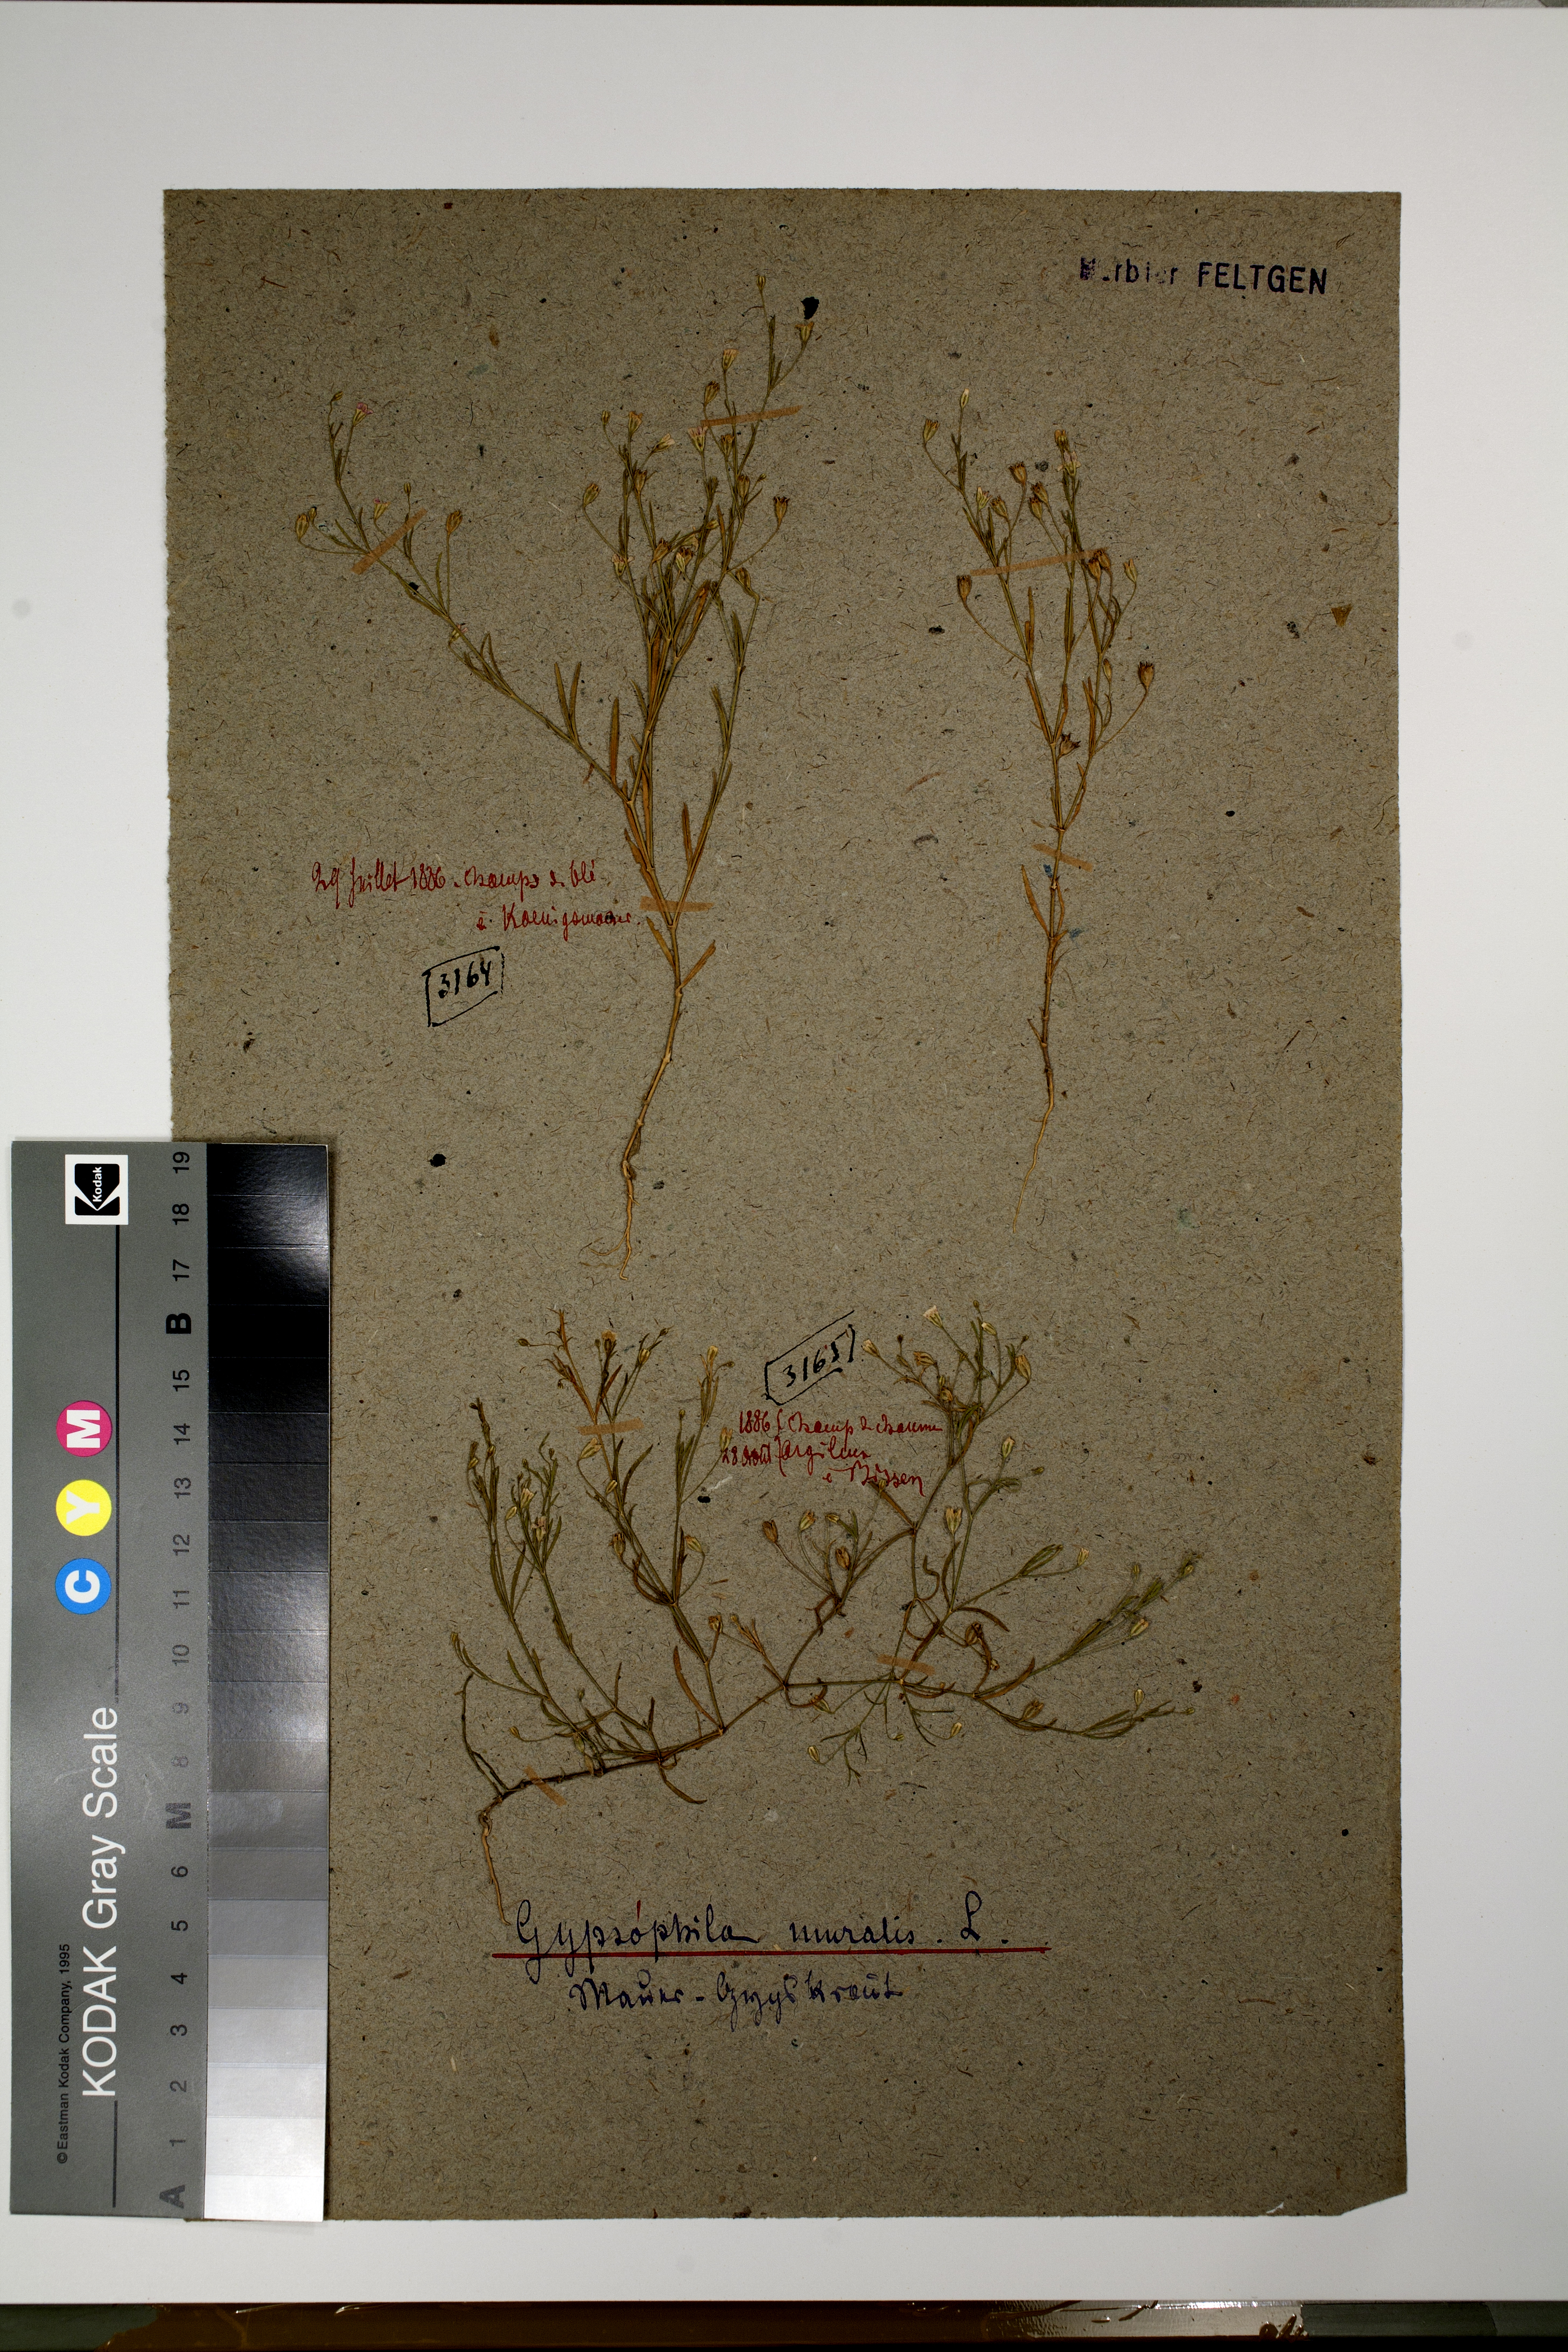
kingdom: Plantae
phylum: Tracheophyta
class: Magnoliopsida
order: Caryophyllales
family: Caryophyllaceae
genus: Psammophiliella
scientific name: Psammophiliella muralis
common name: Cushion baby's-breath
